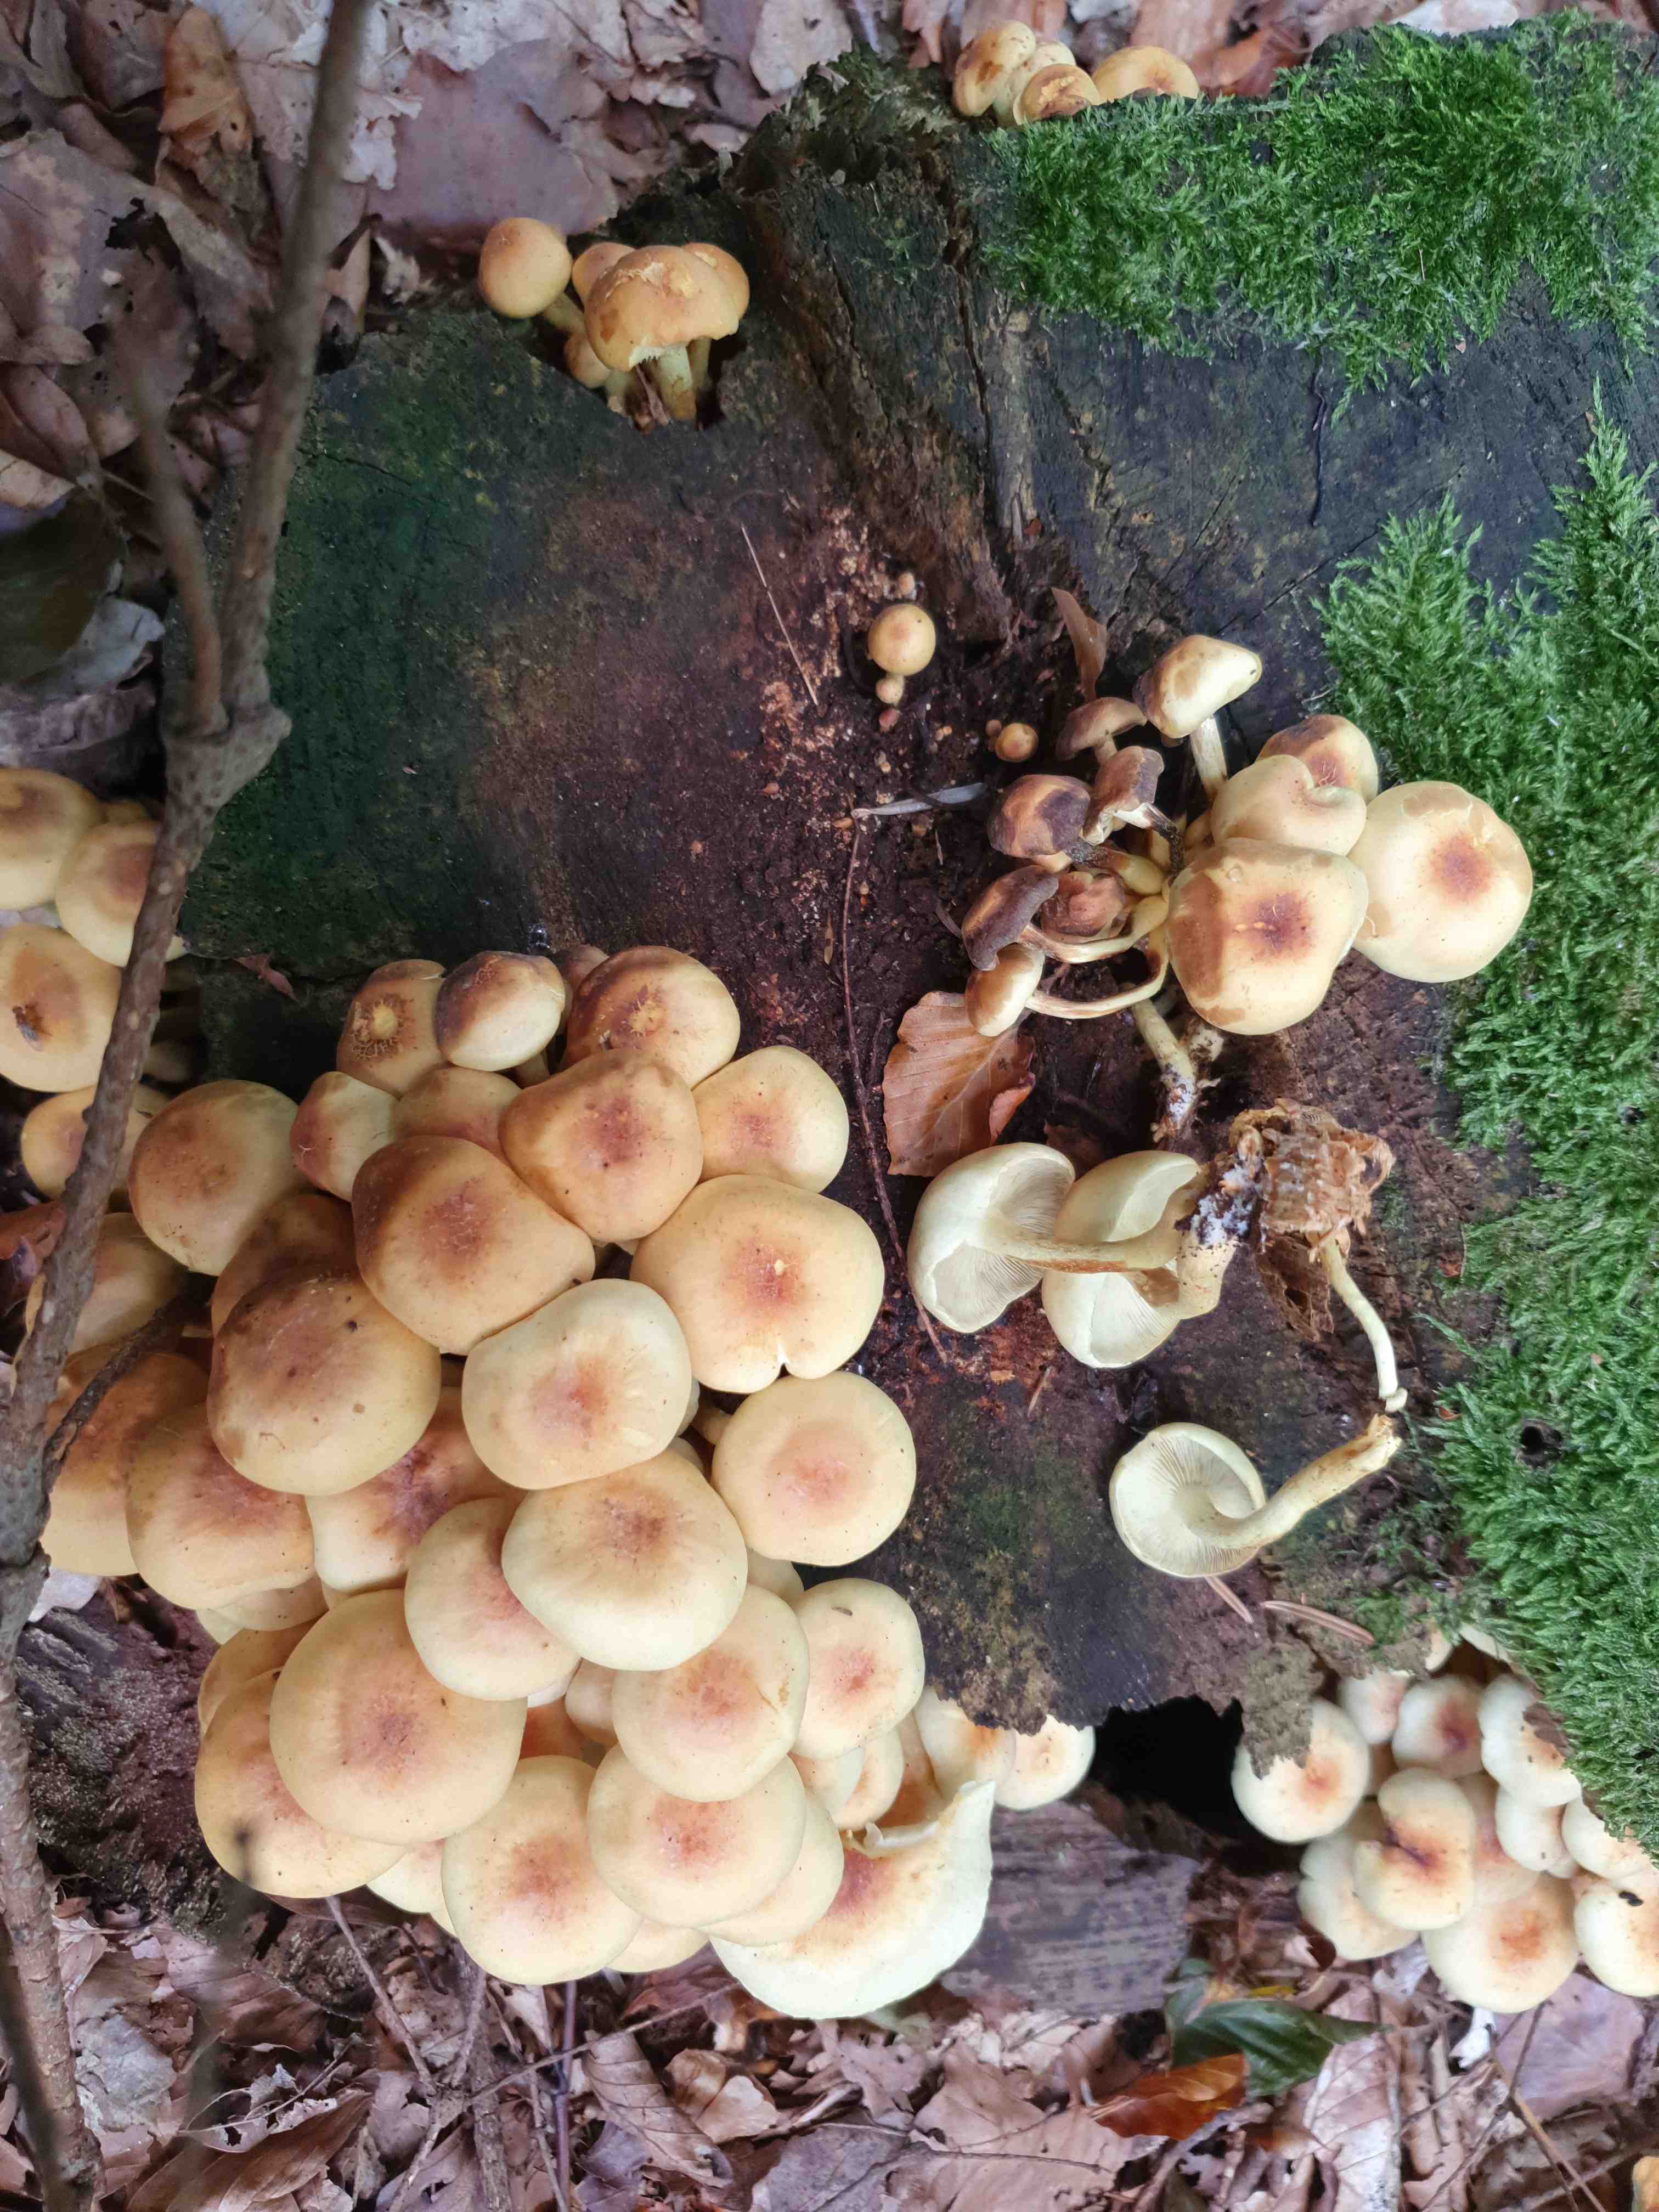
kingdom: Fungi
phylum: Basidiomycota
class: Agaricomycetes
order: Agaricales
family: Strophariaceae
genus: Hypholoma
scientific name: Hypholoma fasciculare
